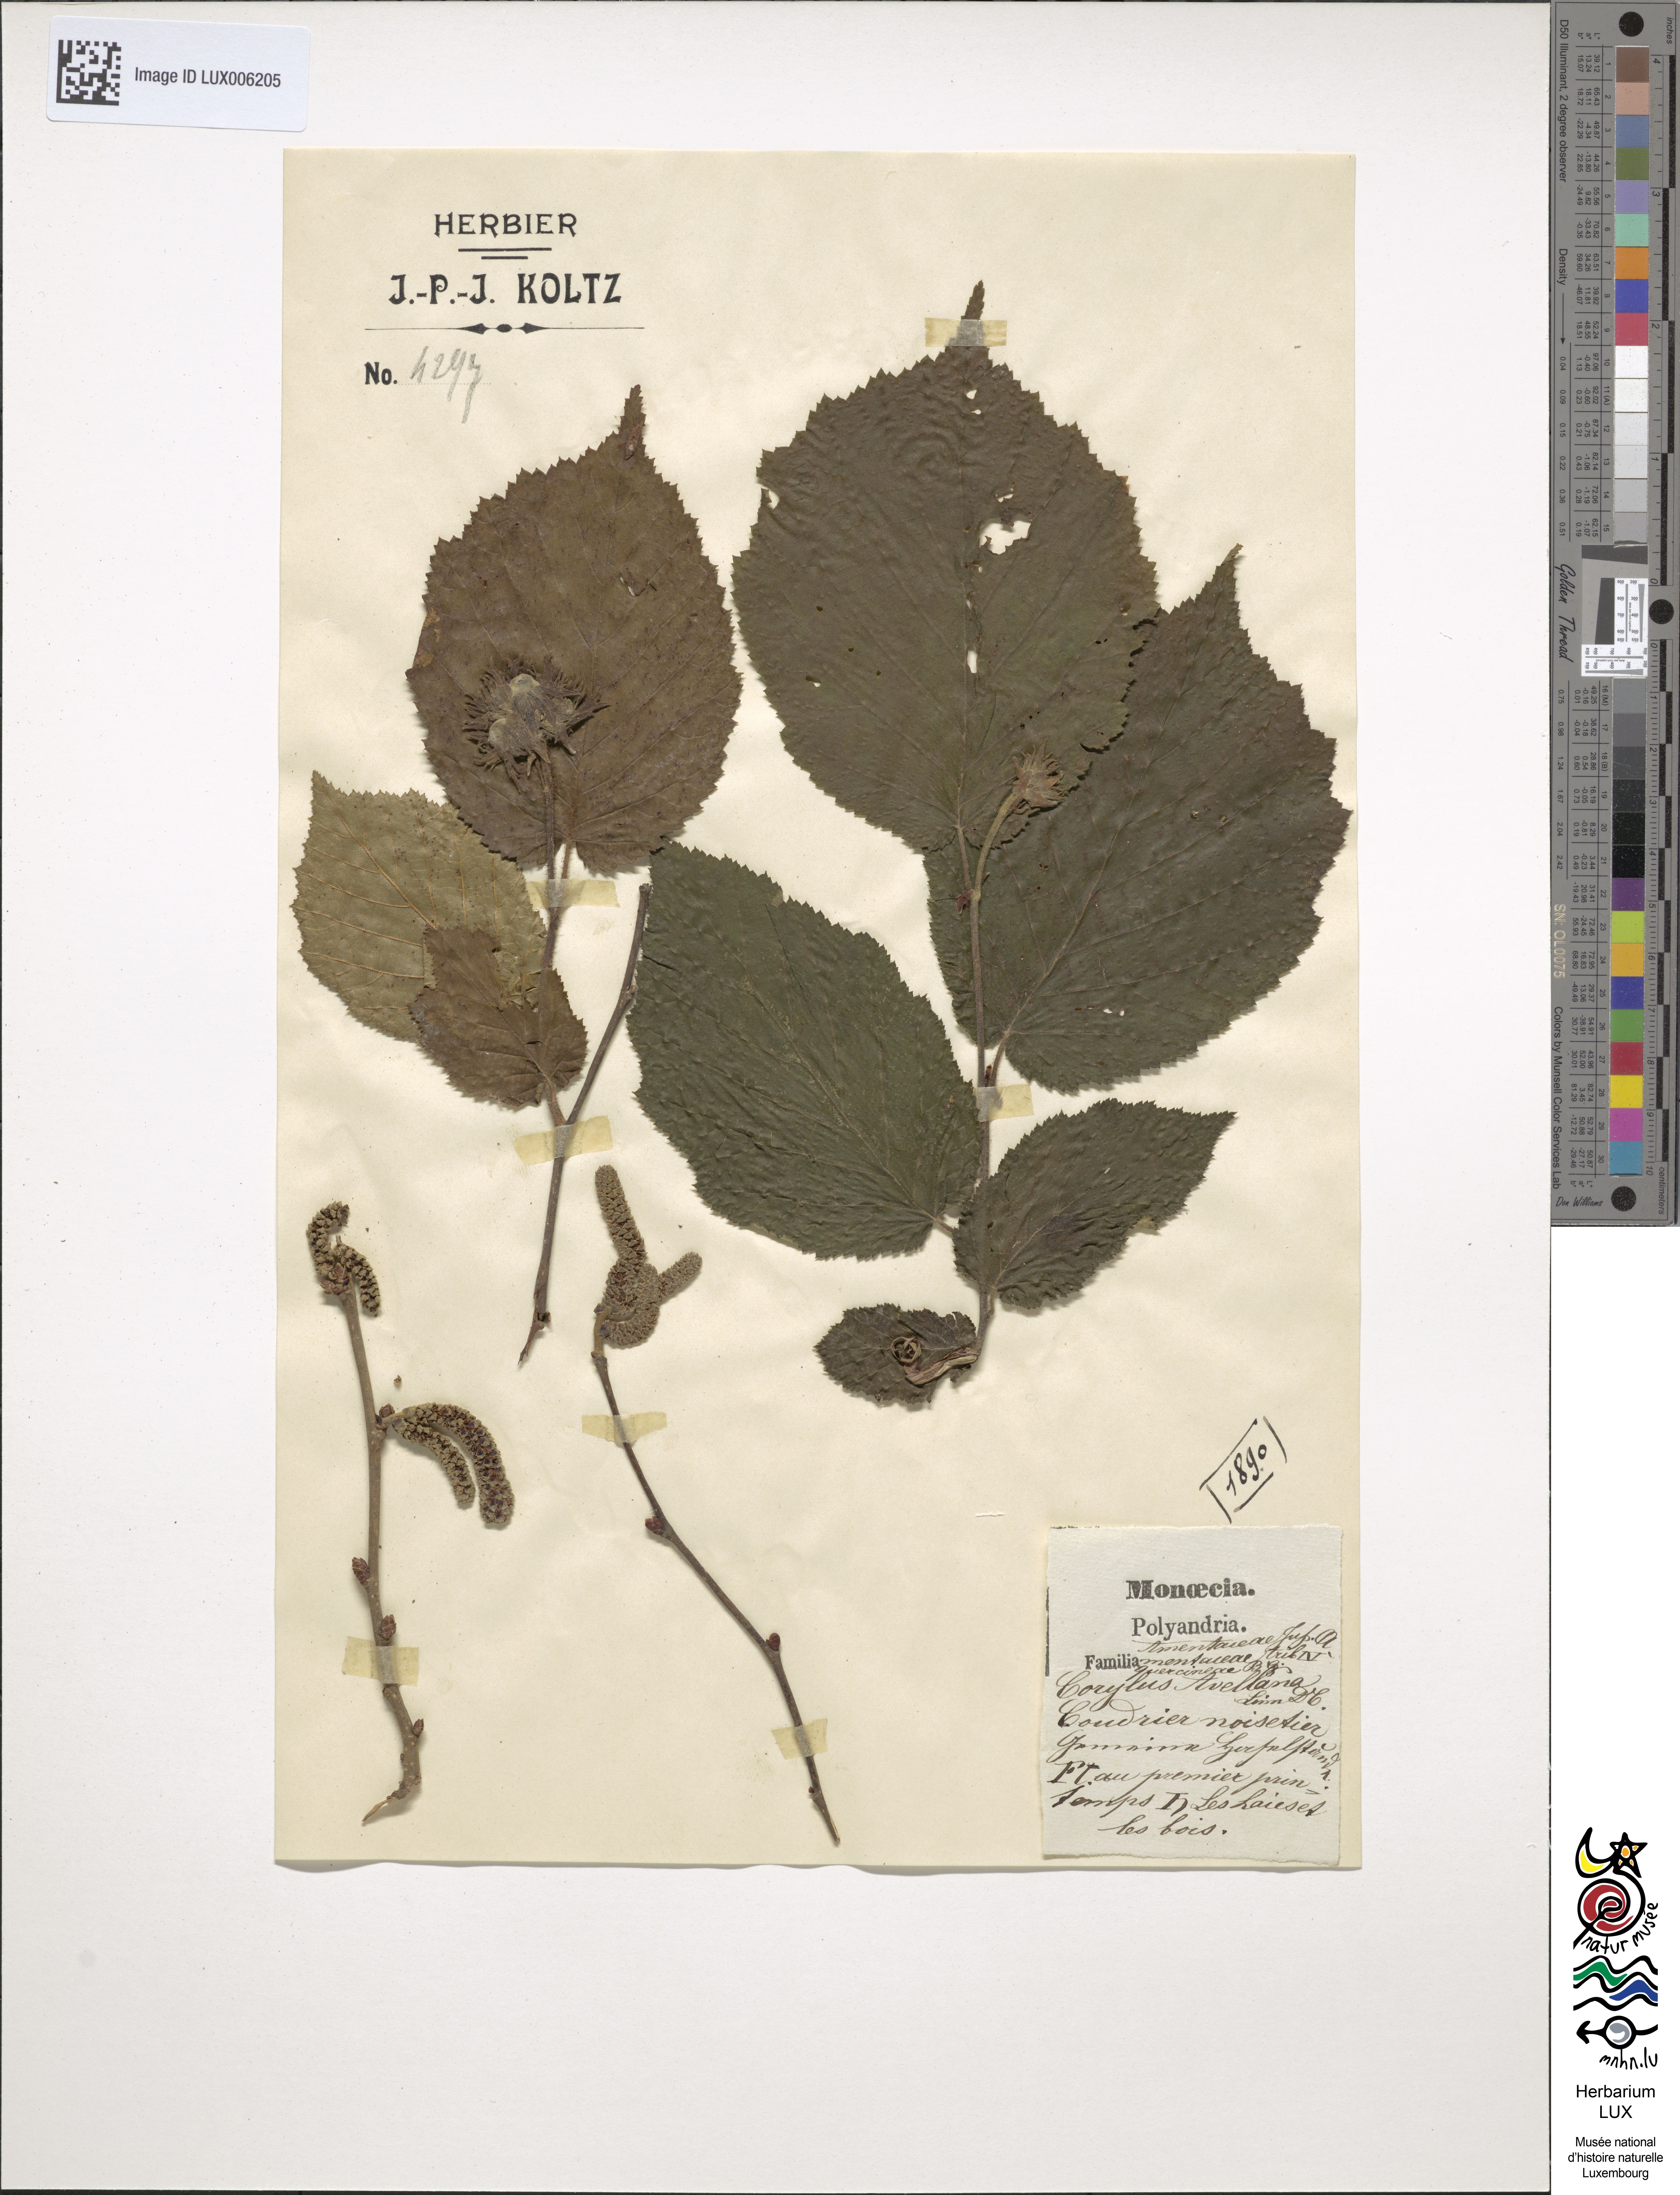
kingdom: Plantae
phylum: Tracheophyta
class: Magnoliopsida
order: Fagales
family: Betulaceae
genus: Corylus
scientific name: Corylus avellana
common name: European hazel
